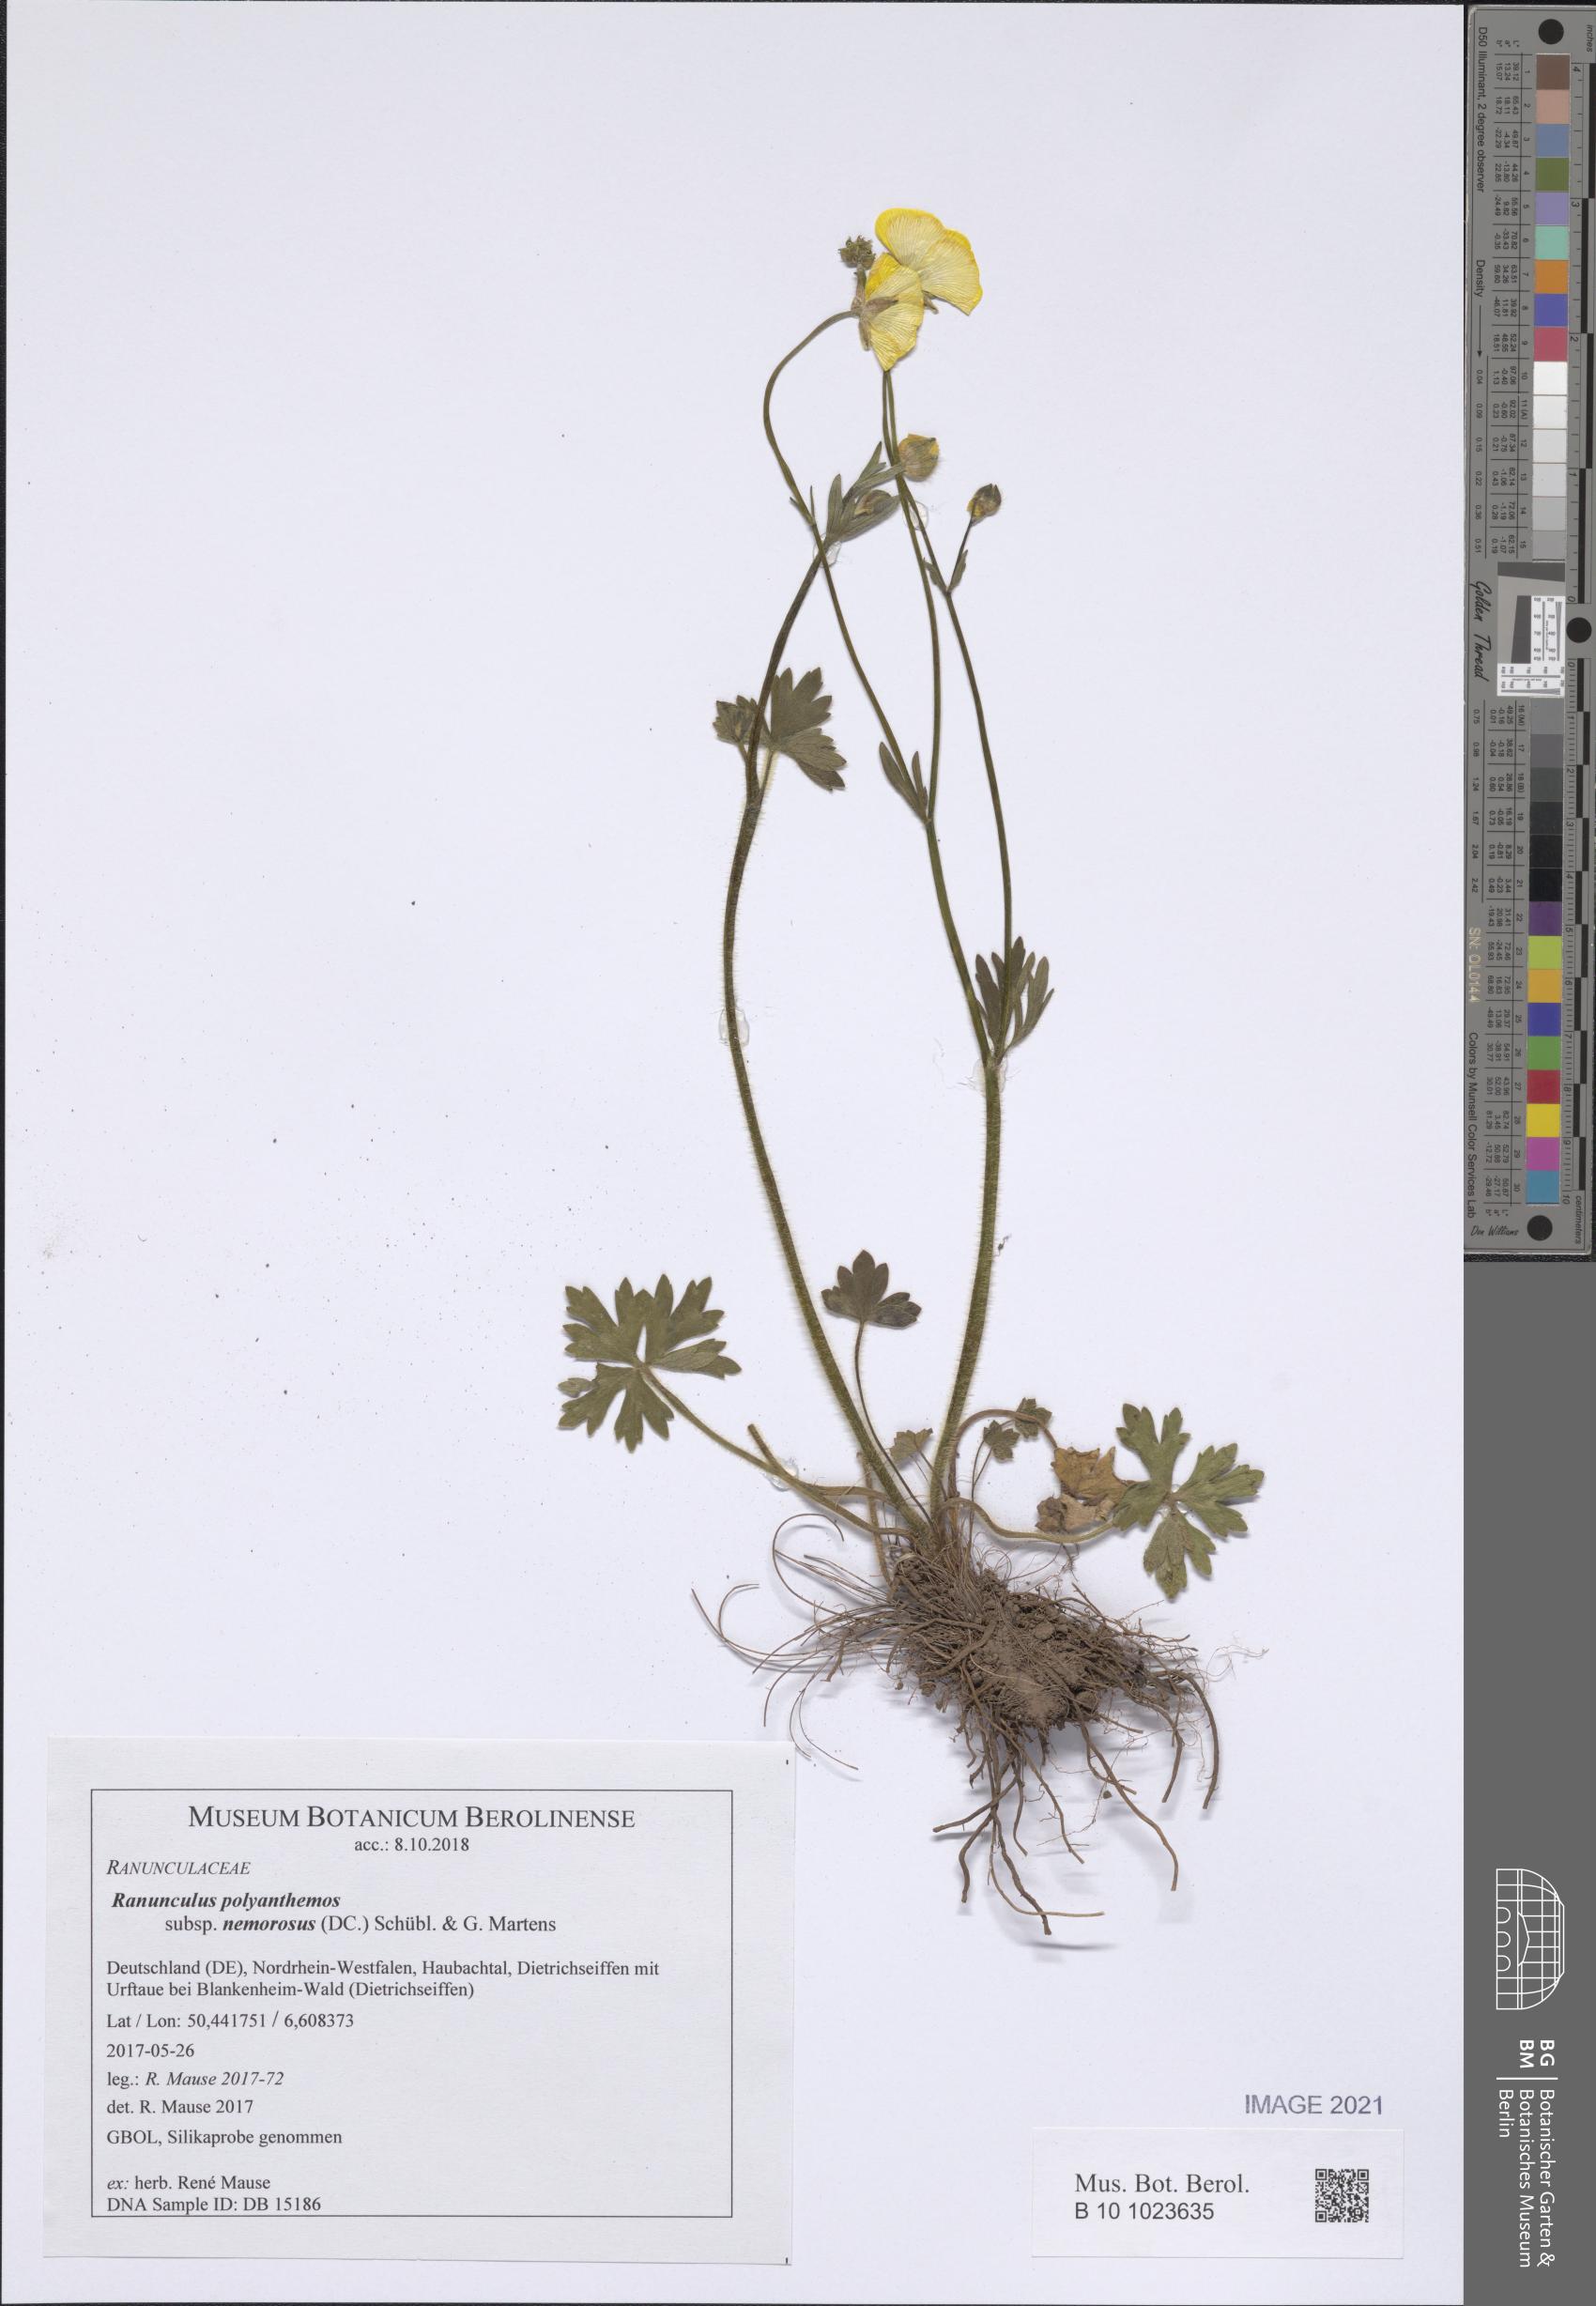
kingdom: Plantae
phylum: Tracheophyta
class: Magnoliopsida
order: Ranunculales
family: Ranunculaceae
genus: Ranunculus
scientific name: Ranunculus polyanthemos
